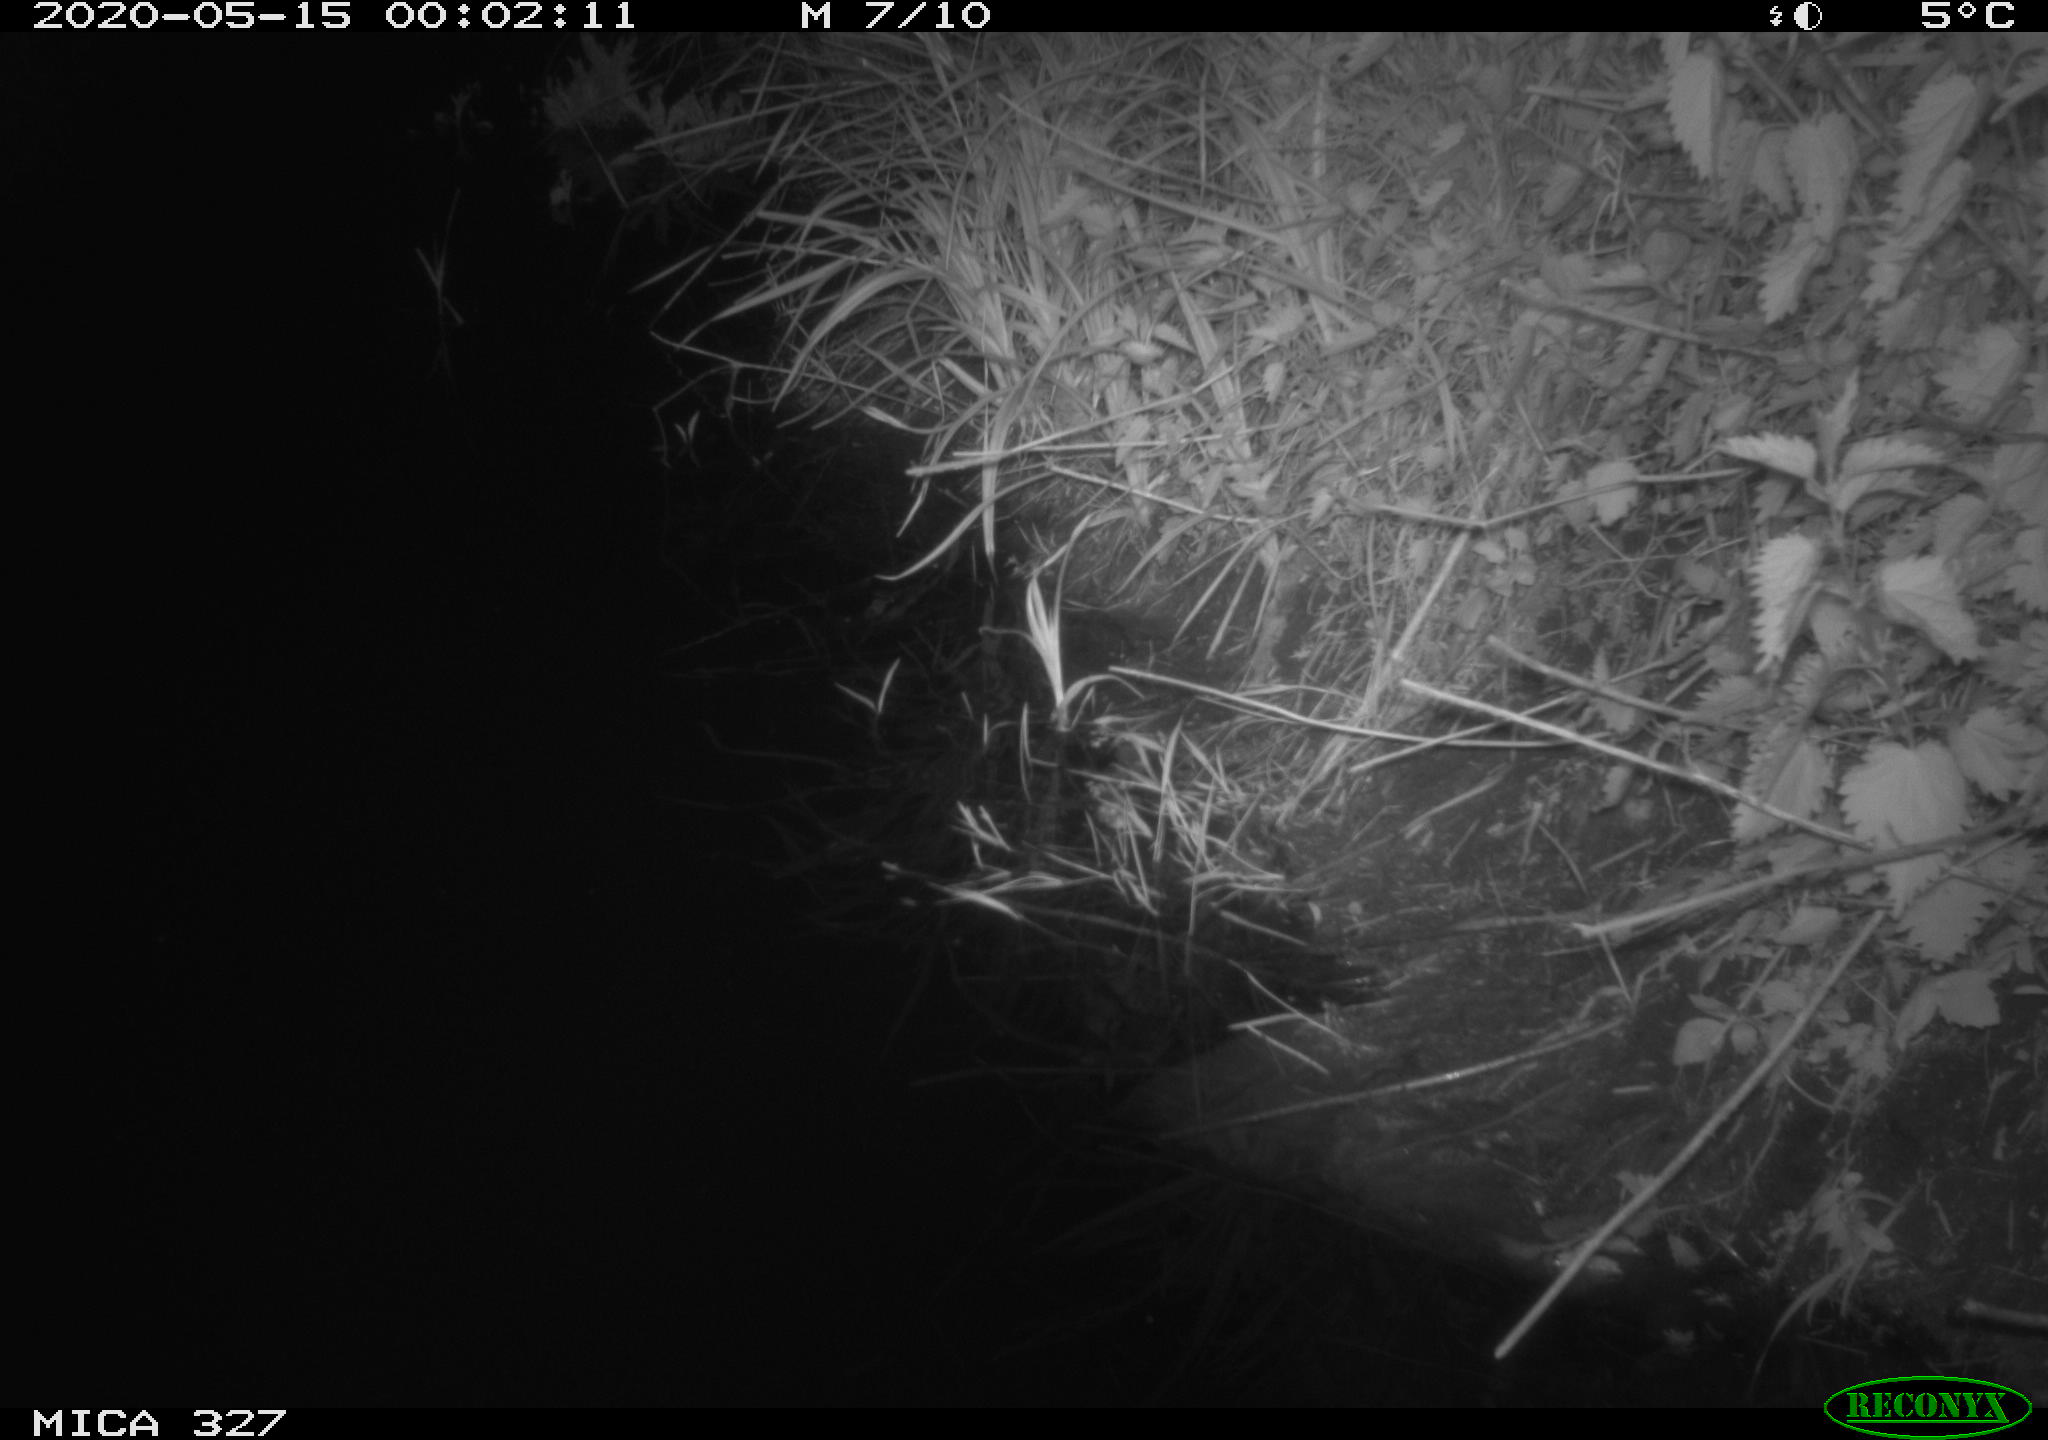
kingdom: Animalia
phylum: Chordata
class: Mammalia
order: Rodentia
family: Muridae
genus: Rattus
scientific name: Rattus norvegicus
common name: Brown rat
